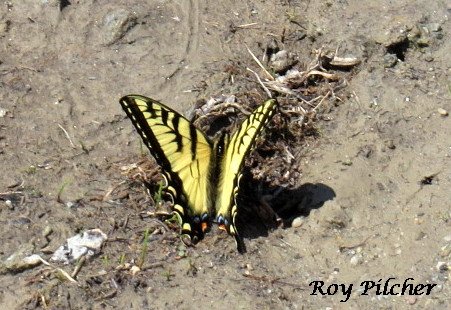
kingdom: Animalia
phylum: Arthropoda
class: Insecta
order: Lepidoptera
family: Papilionidae
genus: Pterourus
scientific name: Pterourus canadensis
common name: Canadian Tiger Swallowtail
